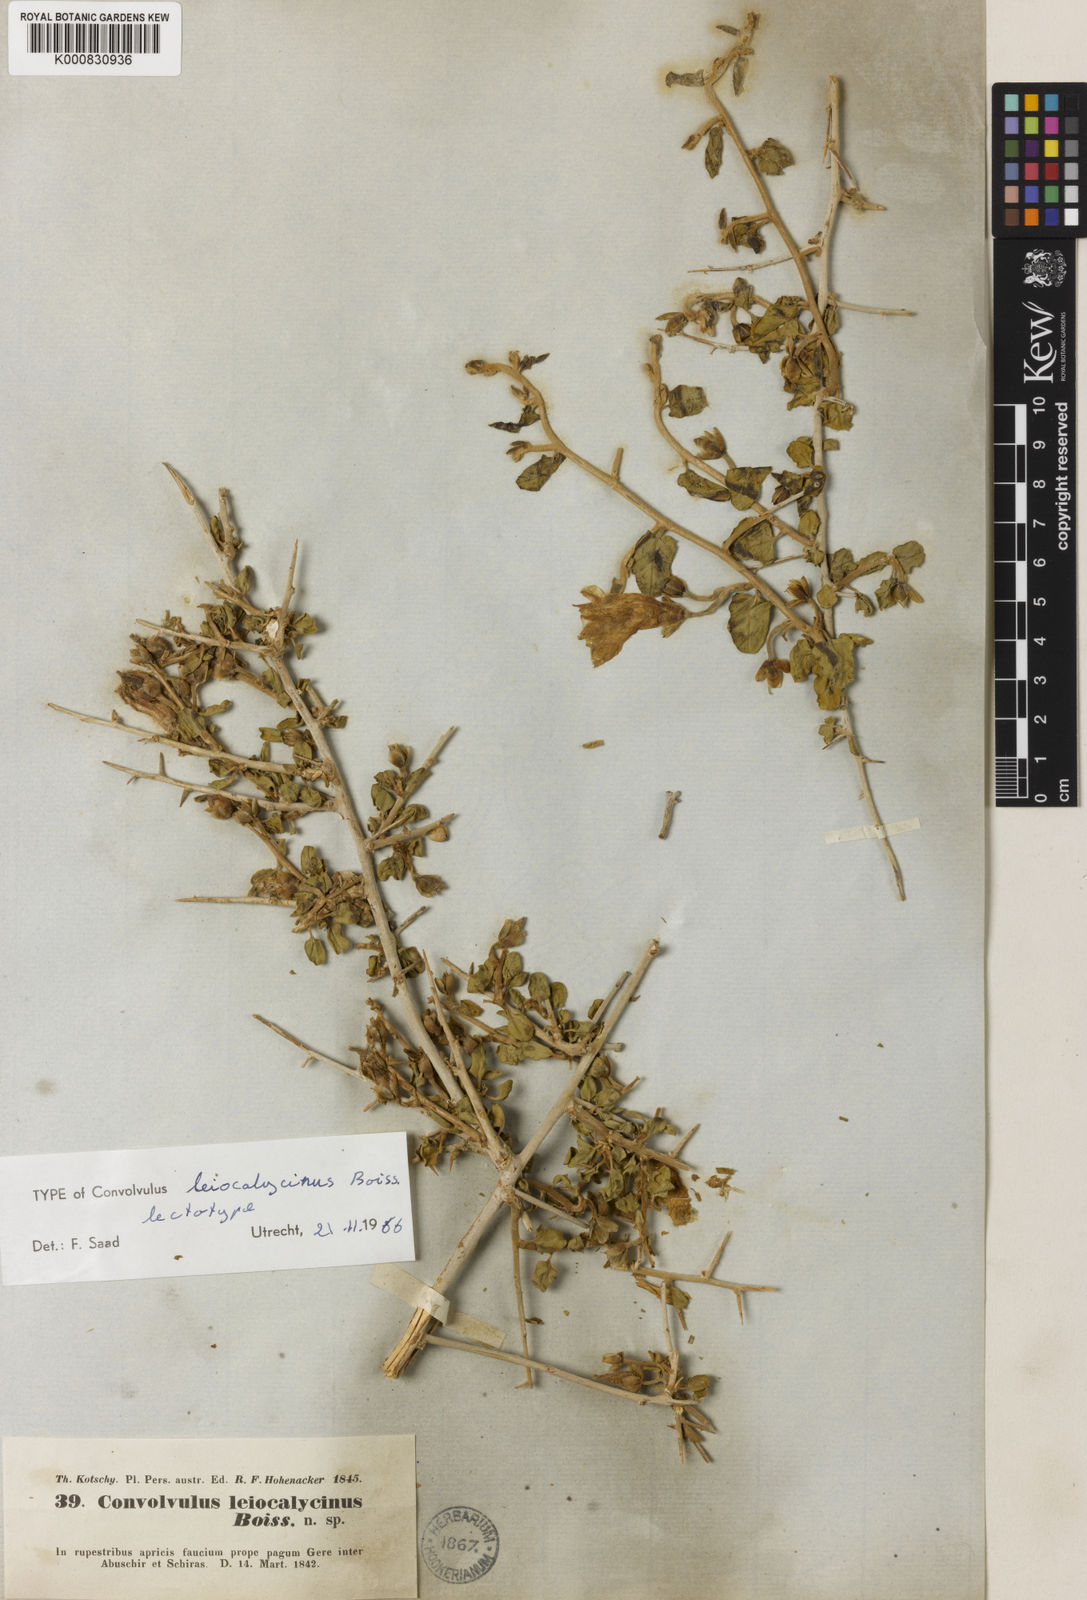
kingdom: Plantae
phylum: Tracheophyta
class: Magnoliopsida
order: Solanales
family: Convolvulaceae
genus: Convolvulus
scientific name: Convolvulus leiocalycinus
